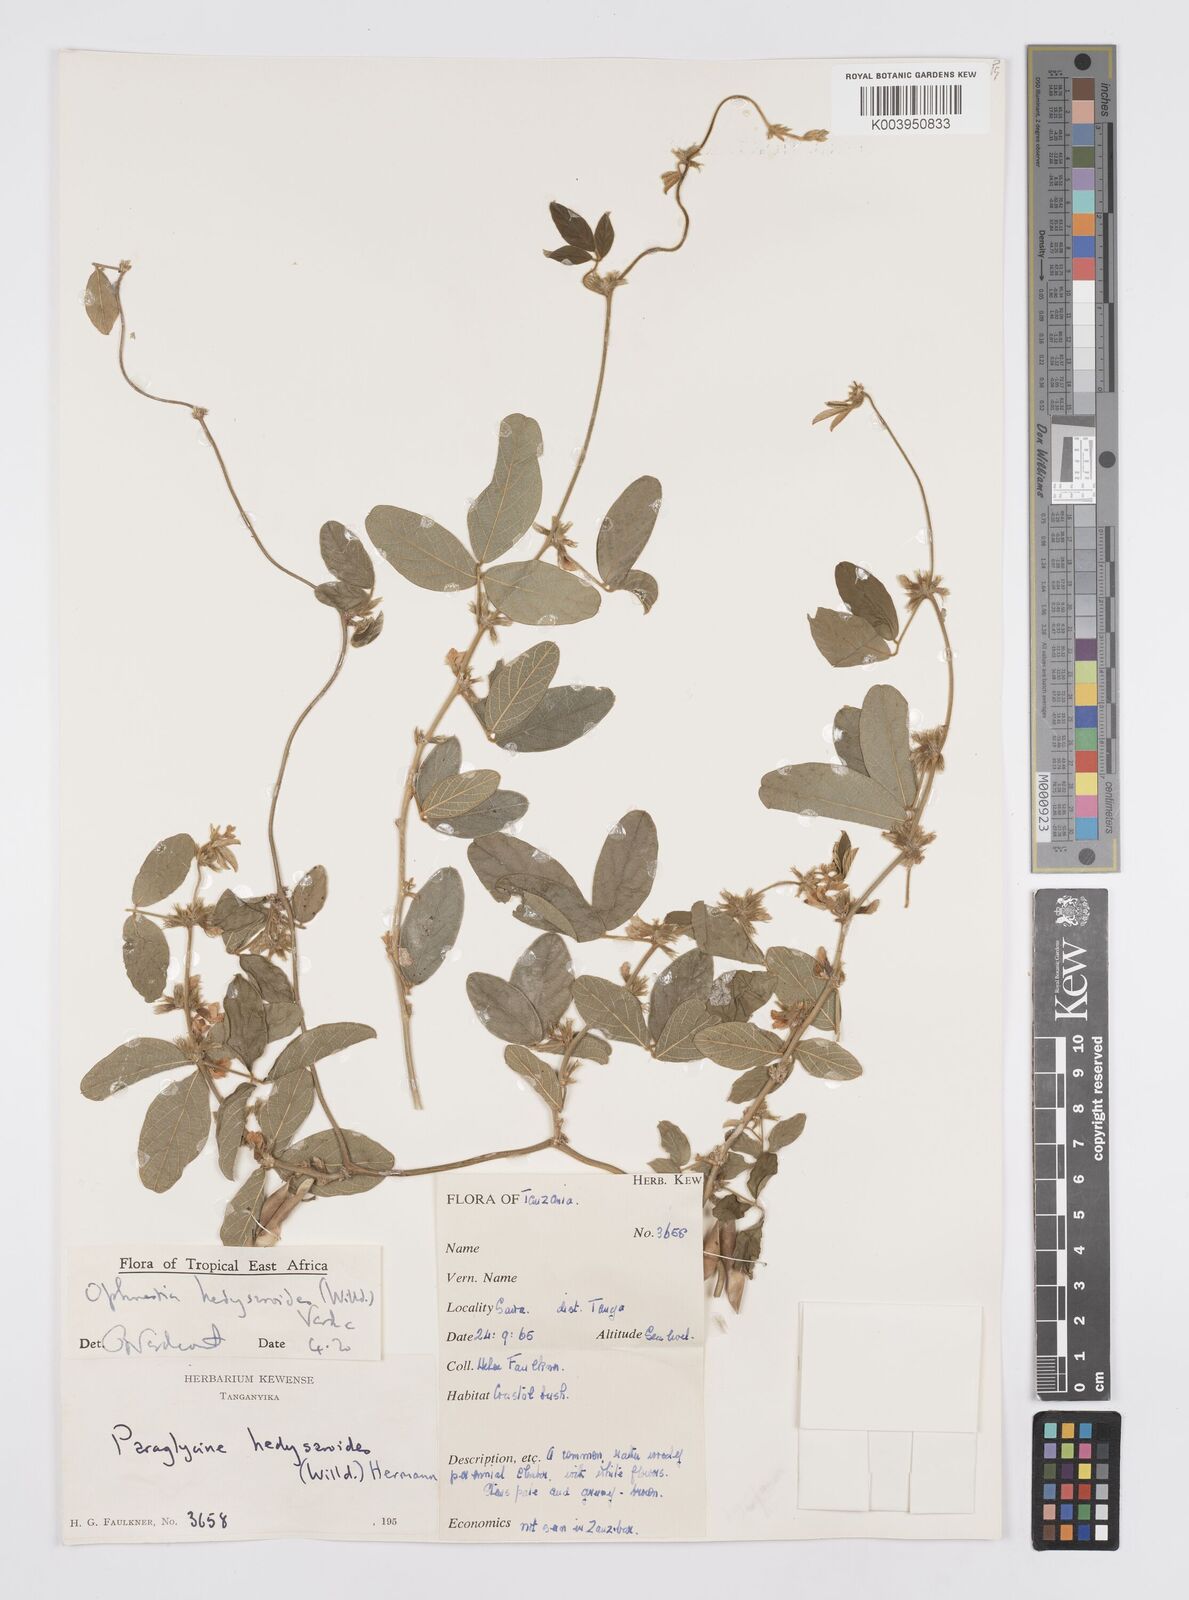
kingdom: Plantae
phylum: Tracheophyta
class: Magnoliopsida
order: Fabales
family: Fabaceae
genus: Ophrestia
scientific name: Ophrestia hedysaroides
